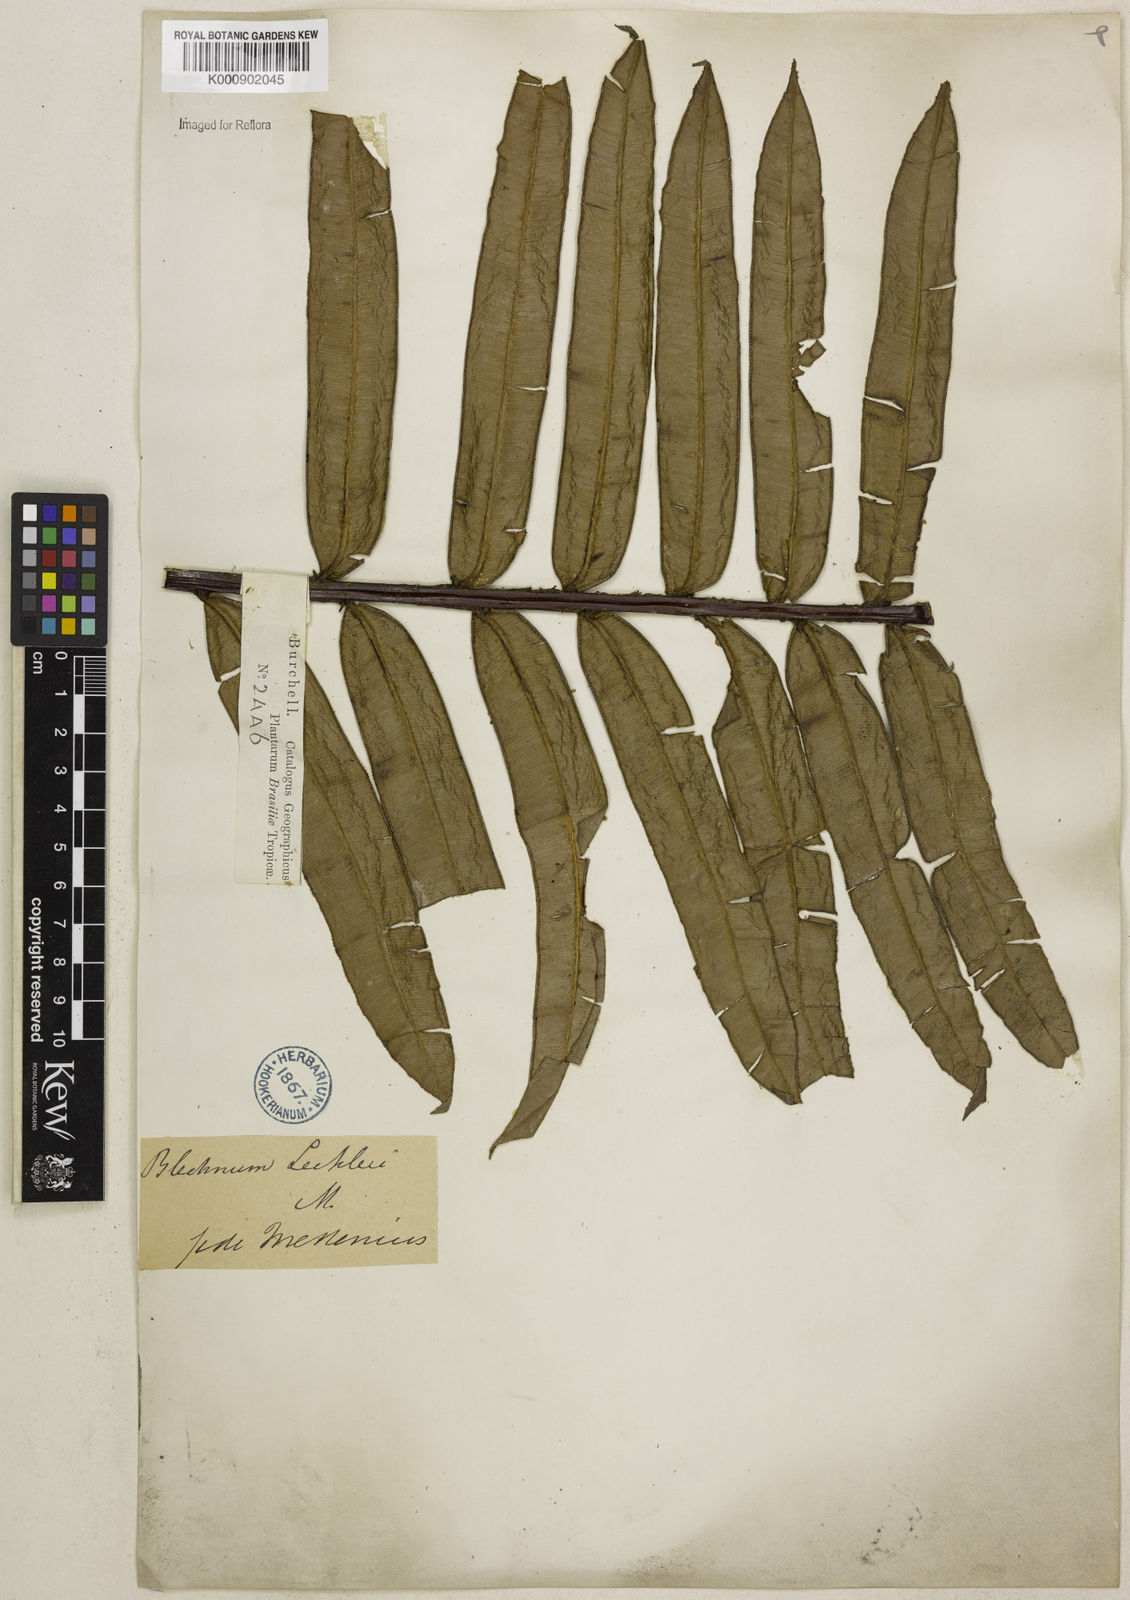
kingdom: Plantae
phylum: Tracheophyta
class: Polypodiopsida
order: Polypodiales
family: Blechnaceae
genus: Parablechnum
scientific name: Parablechnum proliferum
